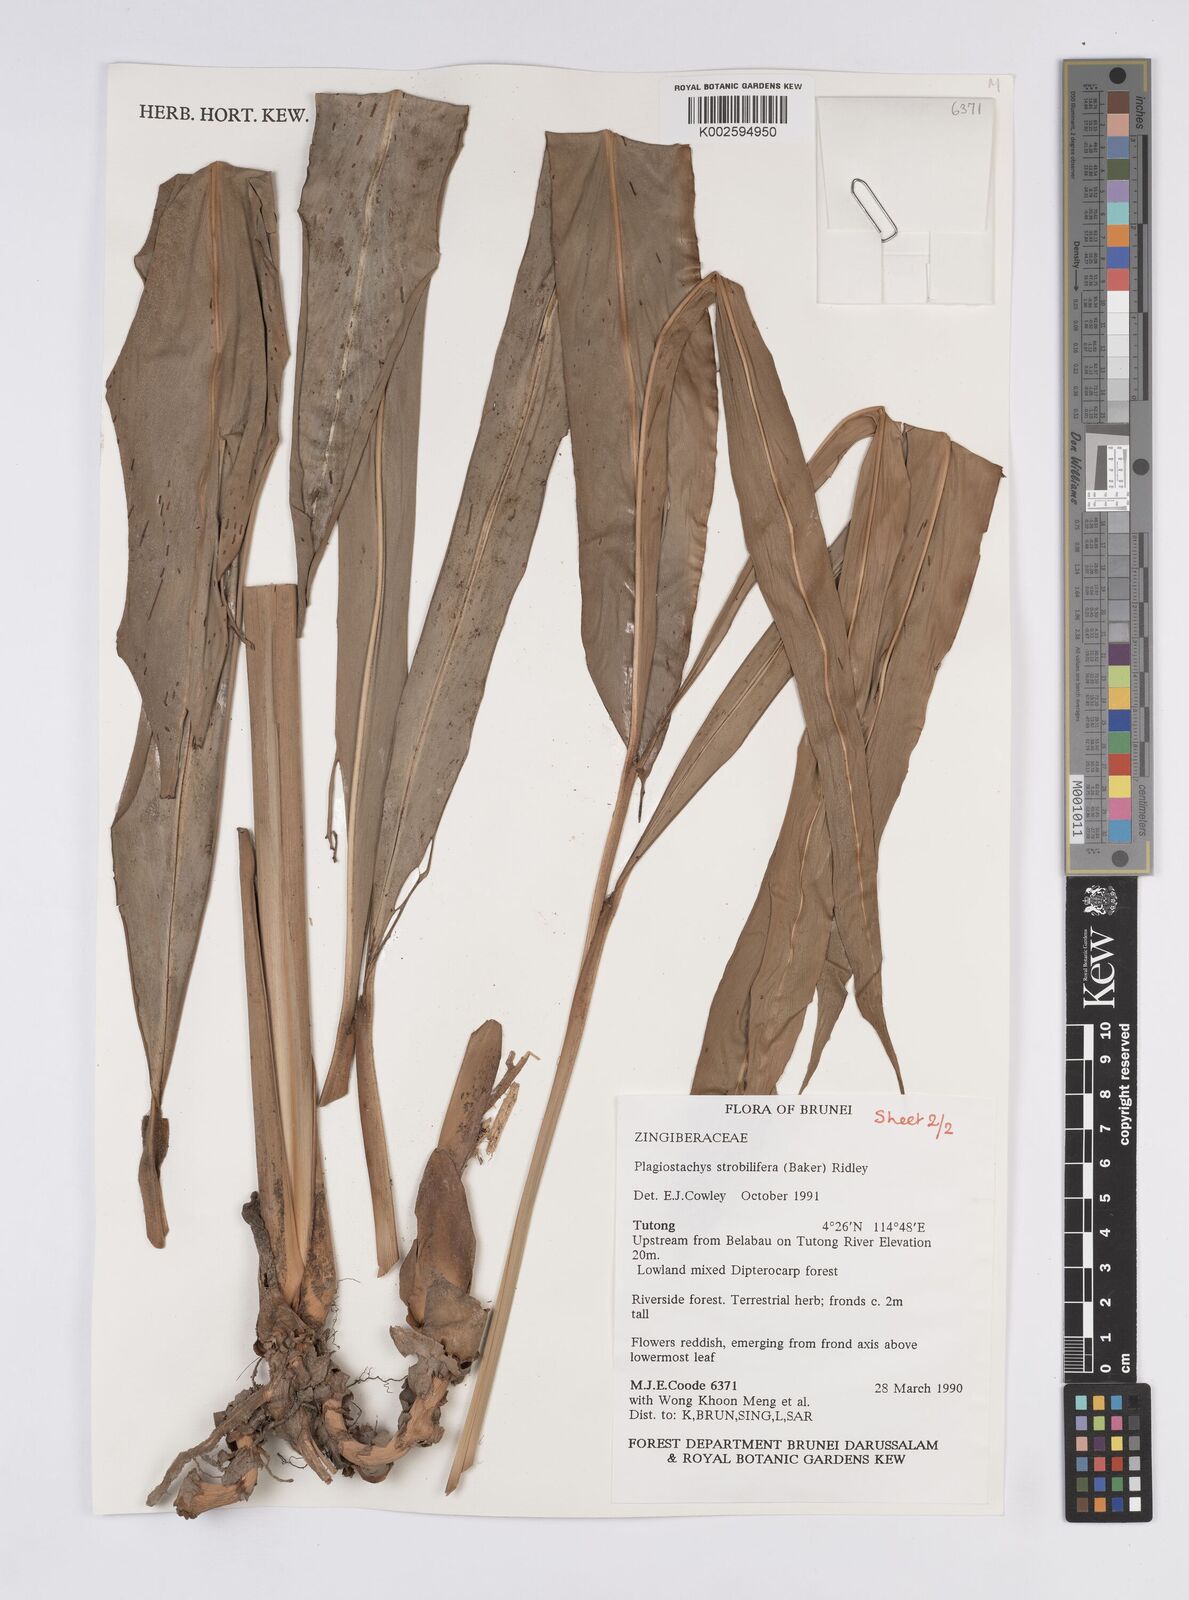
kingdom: Plantae
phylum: Tracheophyta
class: Liliopsida
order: Zingiberales
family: Zingiberaceae
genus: Plagiostachys
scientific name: Plagiostachys strobilifera
